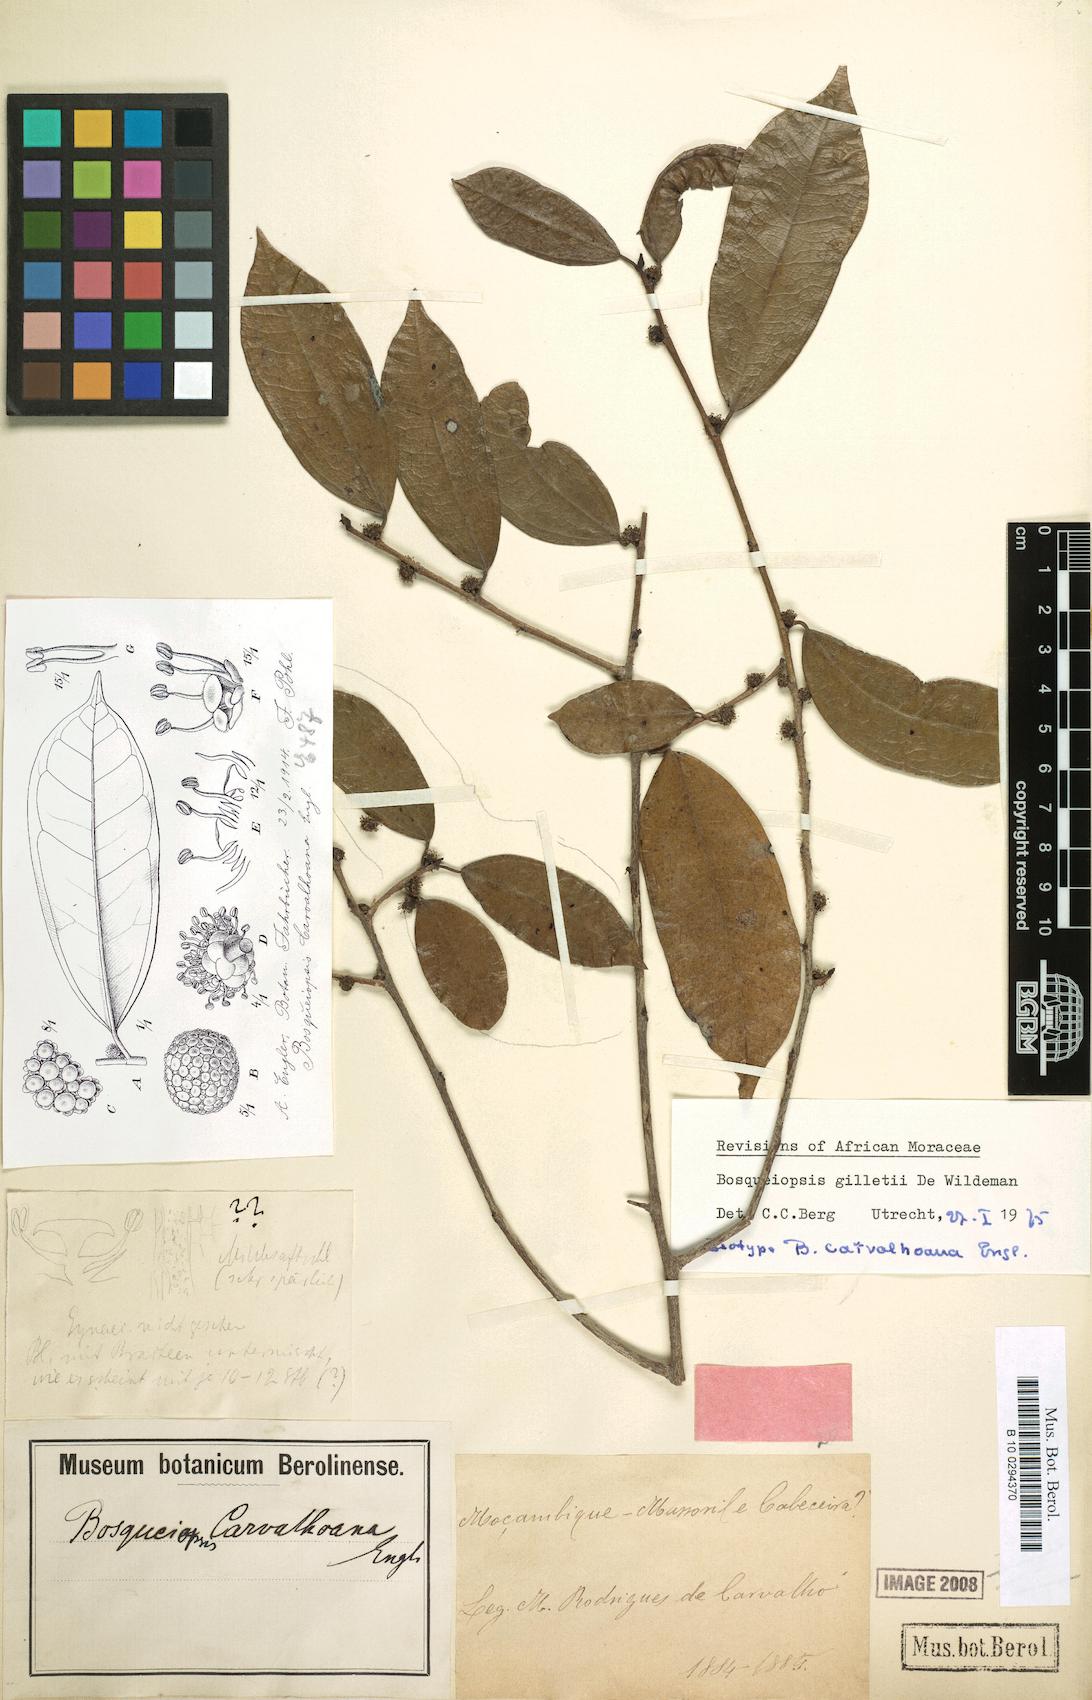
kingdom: Plantae
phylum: Tracheophyta
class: Magnoliopsida
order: Rosales
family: Moraceae
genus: Bosqueiopsis
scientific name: Bosqueiopsis gilletii
